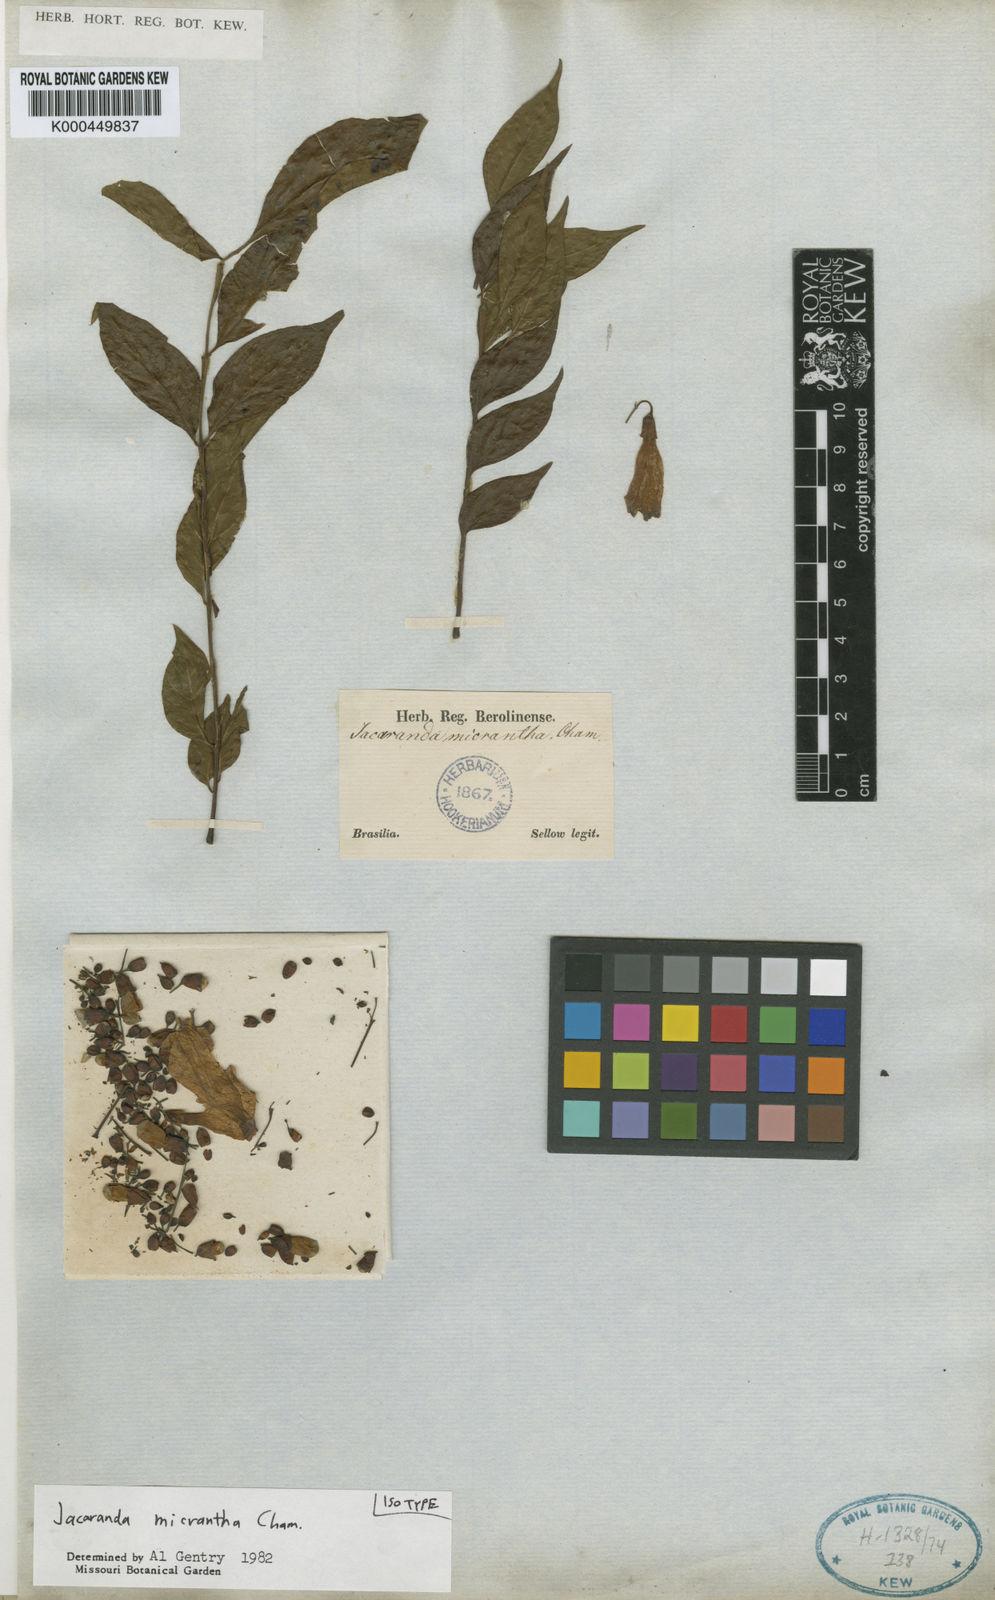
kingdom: Plantae
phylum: Tracheophyta
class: Magnoliopsida
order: Lamiales
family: Bignoniaceae
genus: Jacaranda
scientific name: Jacaranda micrantha
